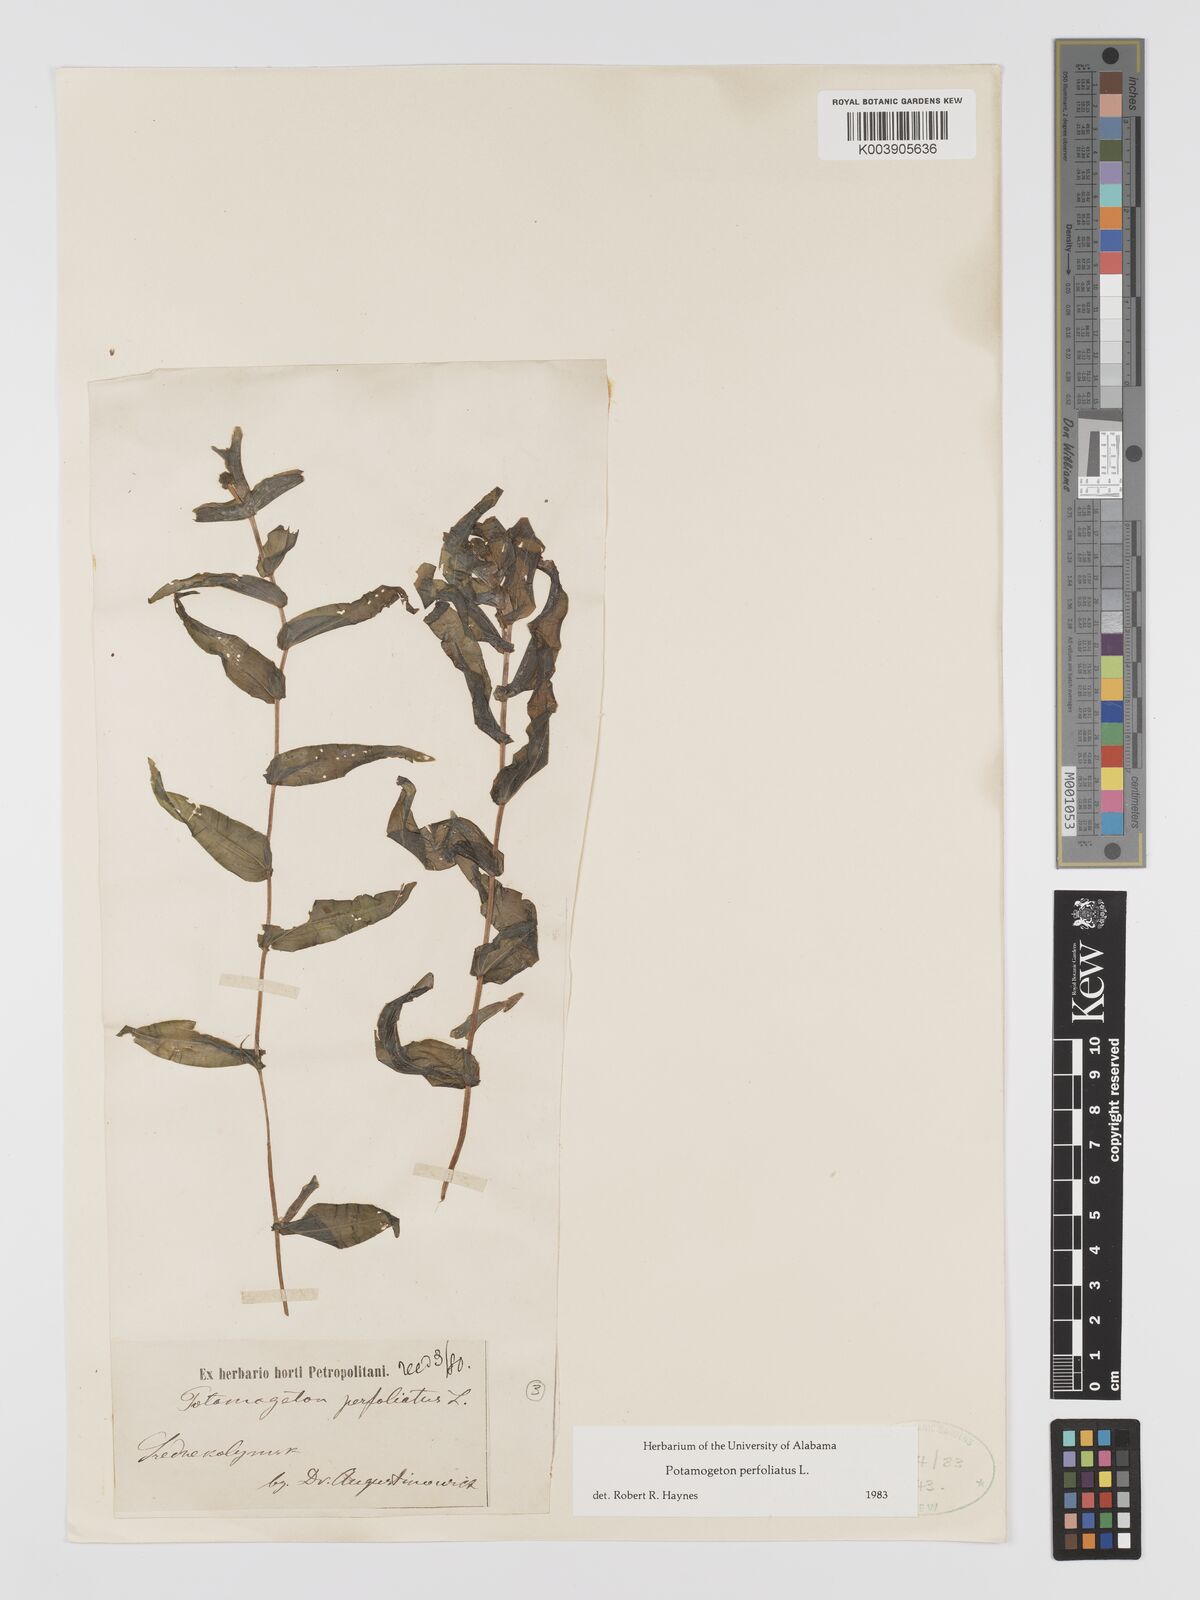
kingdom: Plantae
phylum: Tracheophyta
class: Liliopsida
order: Alismatales
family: Potamogetonaceae
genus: Potamogeton
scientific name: Potamogeton perfoliatus
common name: Perfoliate pondweed
